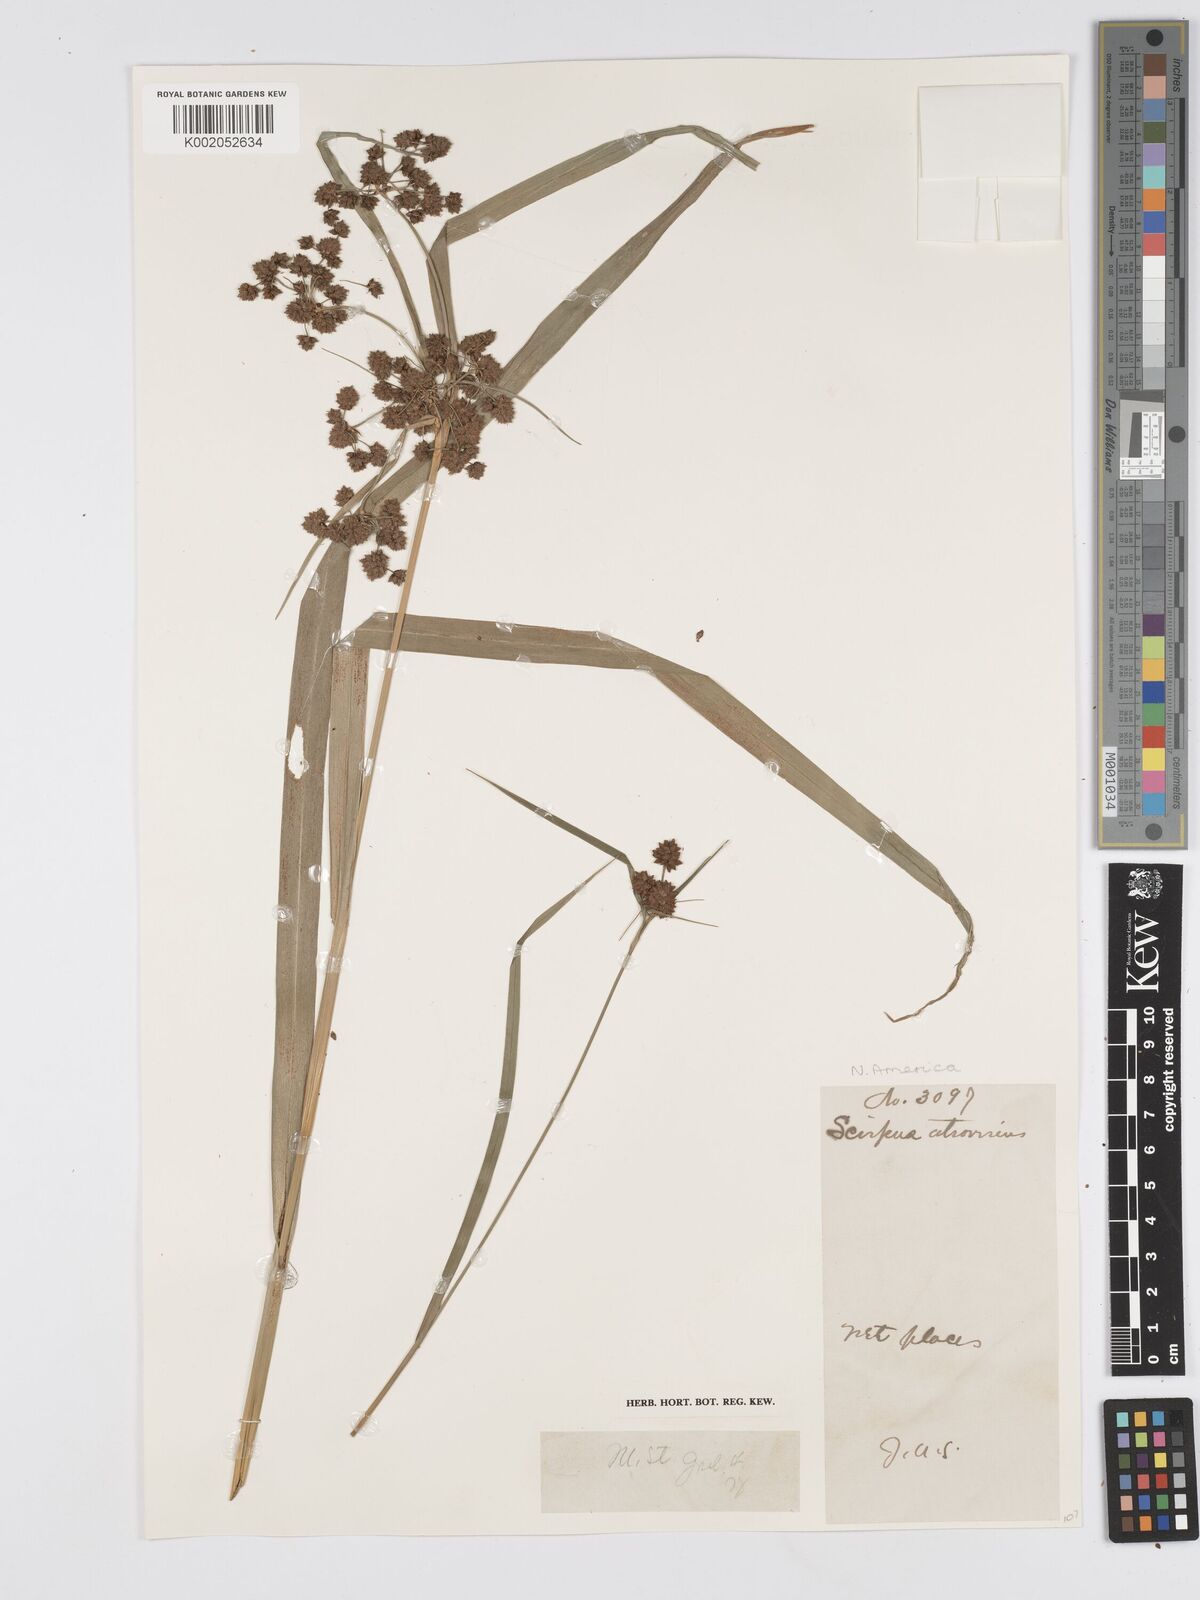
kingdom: Plantae
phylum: Tracheophyta
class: Liliopsida
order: Poales
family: Cyperaceae
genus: Scirpus
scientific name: Scirpus atrovirens
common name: Black bulrush
